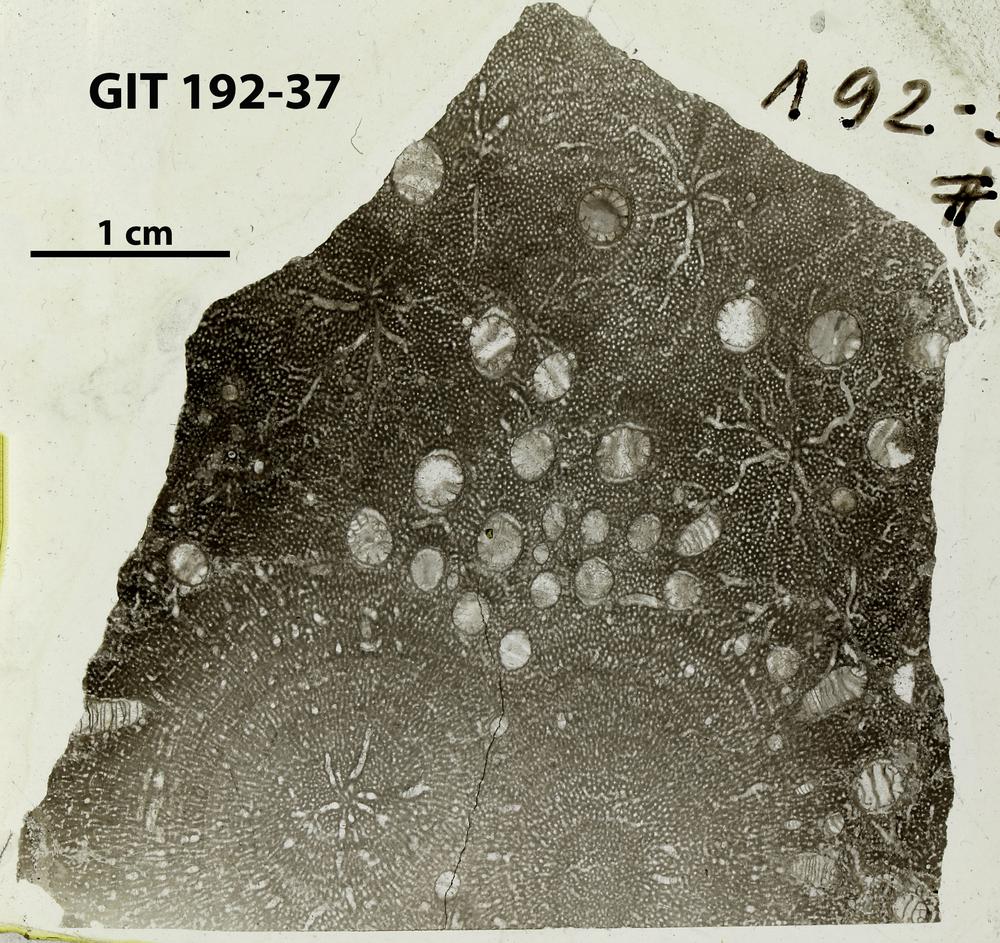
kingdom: Animalia
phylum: Porifera
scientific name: Porifera
